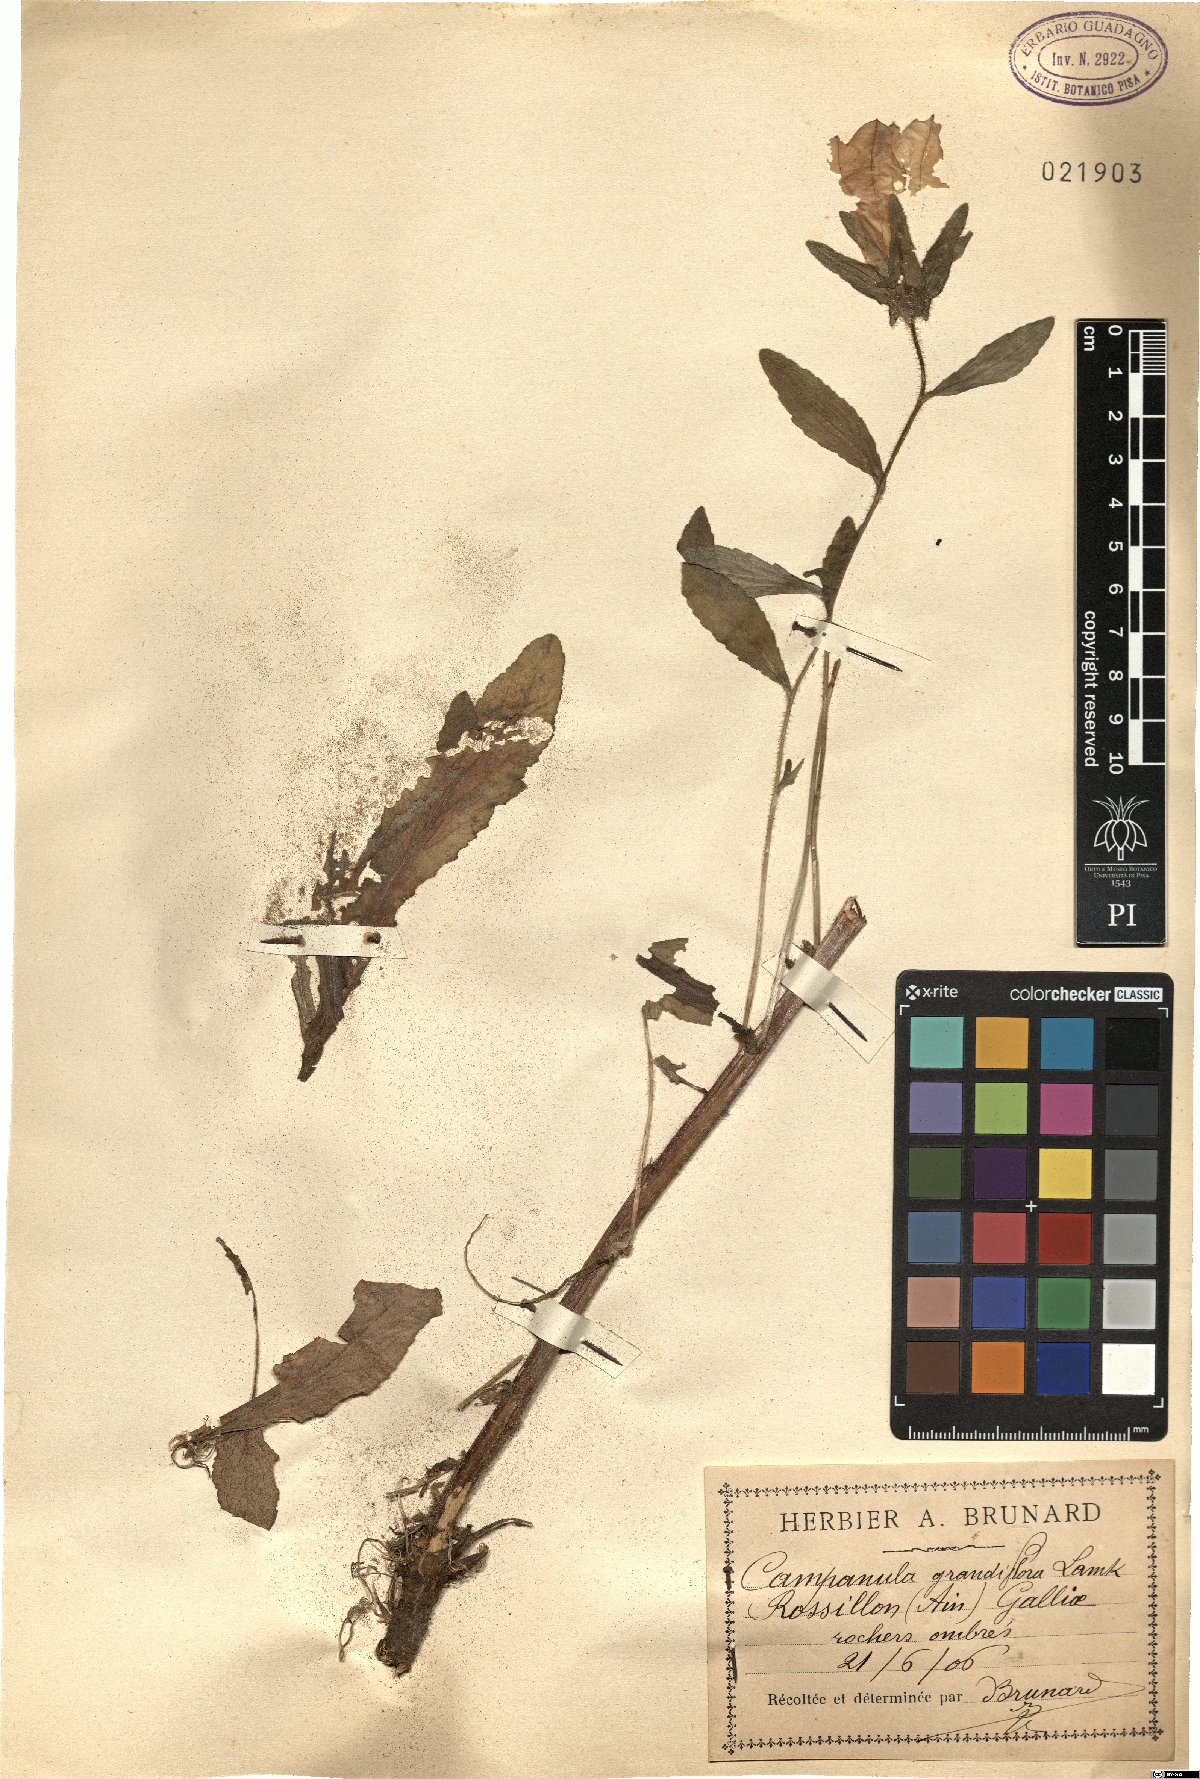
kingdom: Plantae
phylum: Tracheophyta
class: Magnoliopsida
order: Asterales
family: Campanulaceae
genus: Platycodon
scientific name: Platycodon grandiflorus
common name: Balloon-flower
